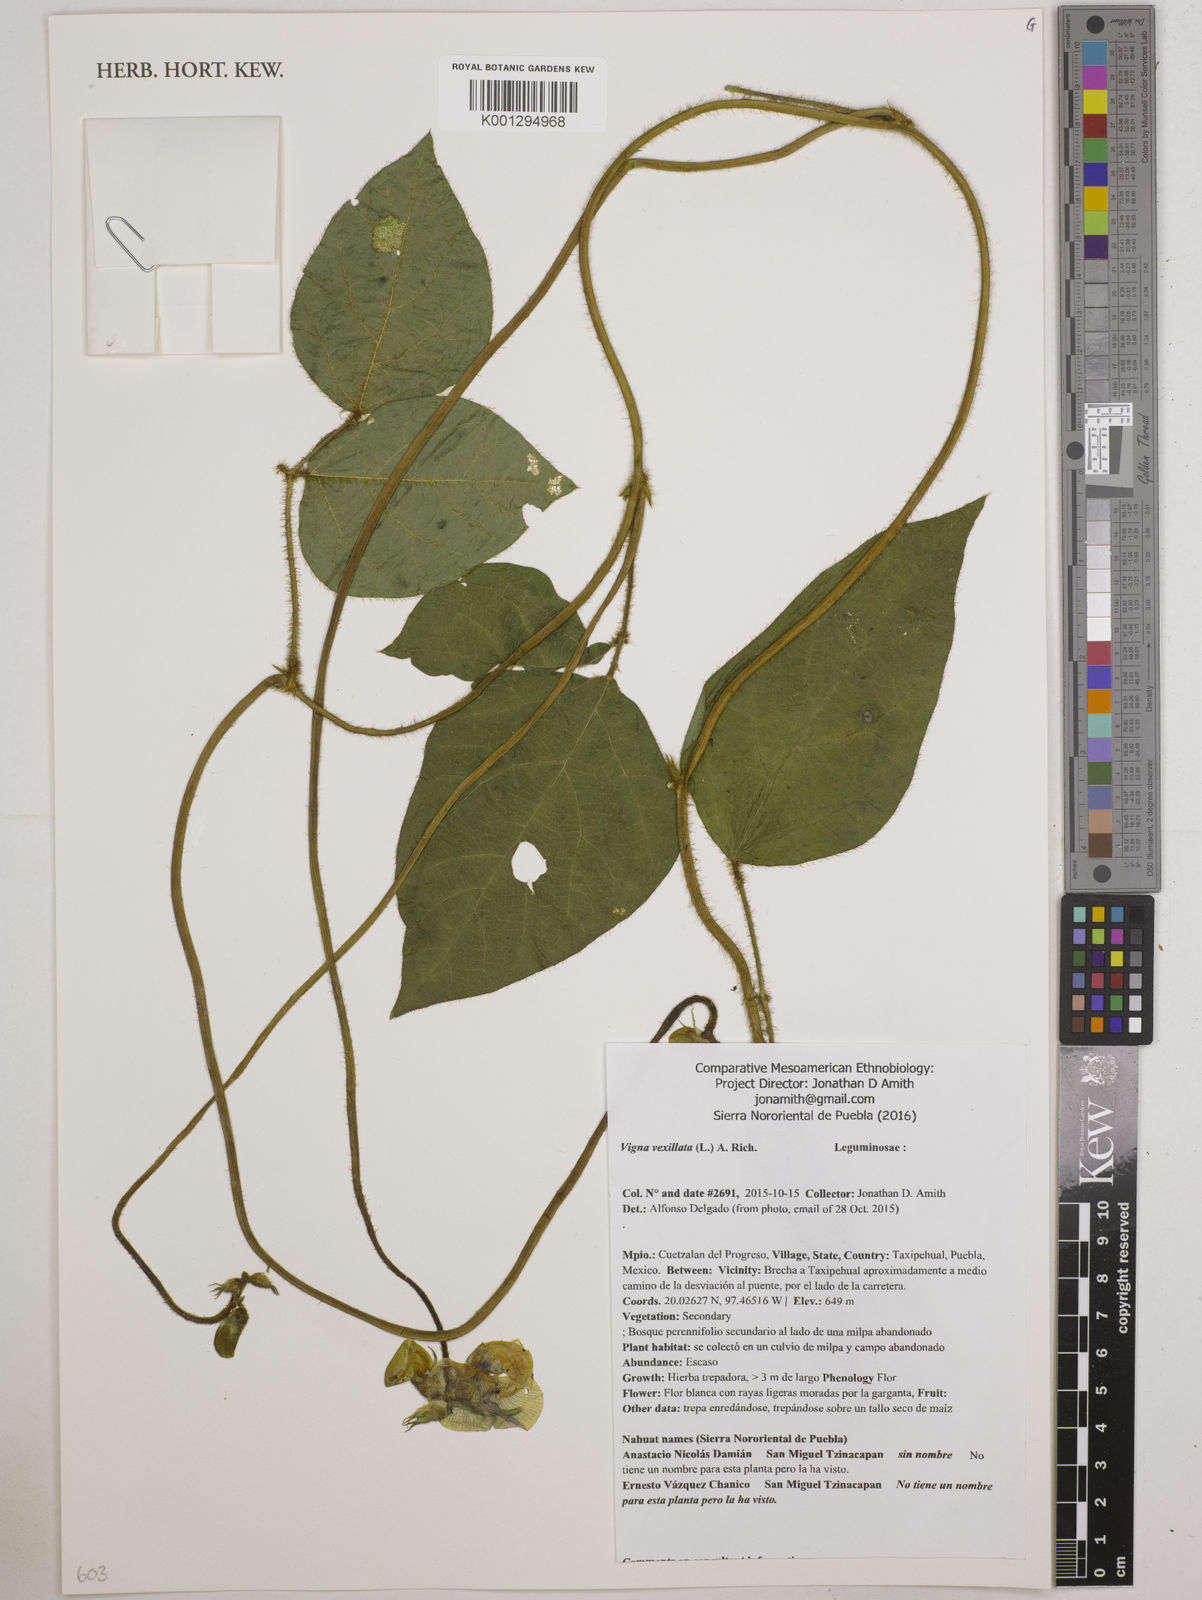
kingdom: Plantae
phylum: Tracheophyta
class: Magnoliopsida
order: Fabales
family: Fabaceae
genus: Vigna
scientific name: Vigna vexillata
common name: Zombi pea
